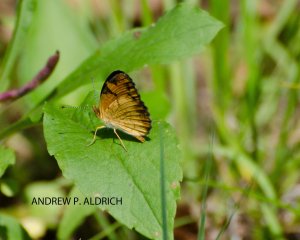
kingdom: Animalia
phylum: Arthropoda
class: Insecta
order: Lepidoptera
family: Nymphalidae
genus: Phyciodes
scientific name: Phyciodes
